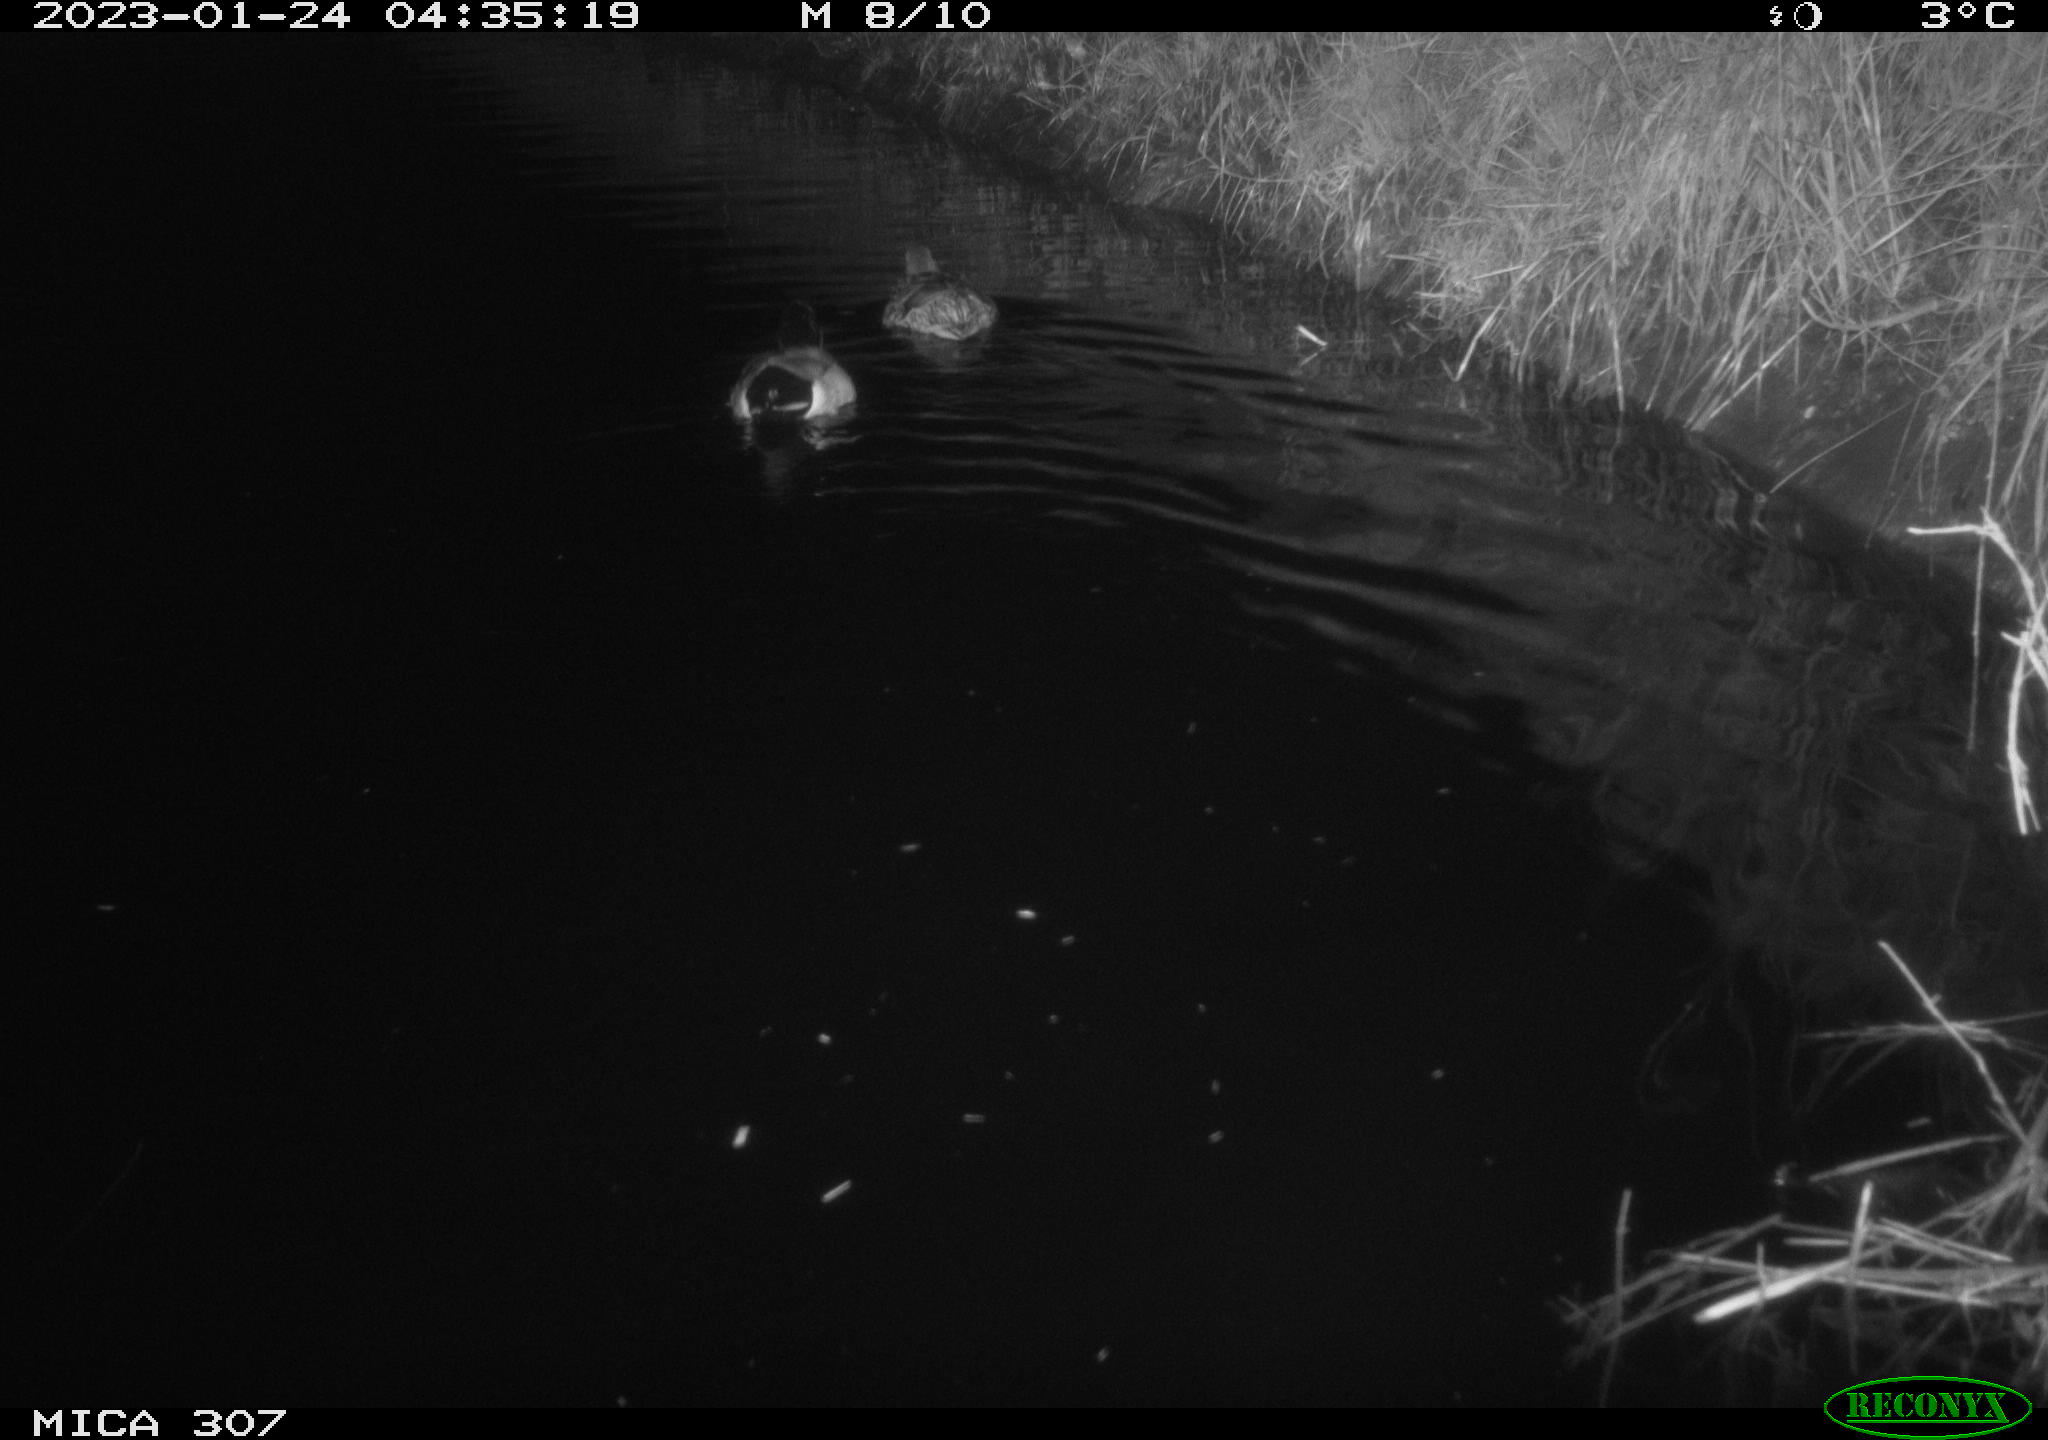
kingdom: Animalia
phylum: Chordata
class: Aves
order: Anseriformes
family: Anatidae
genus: Anas
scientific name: Anas
